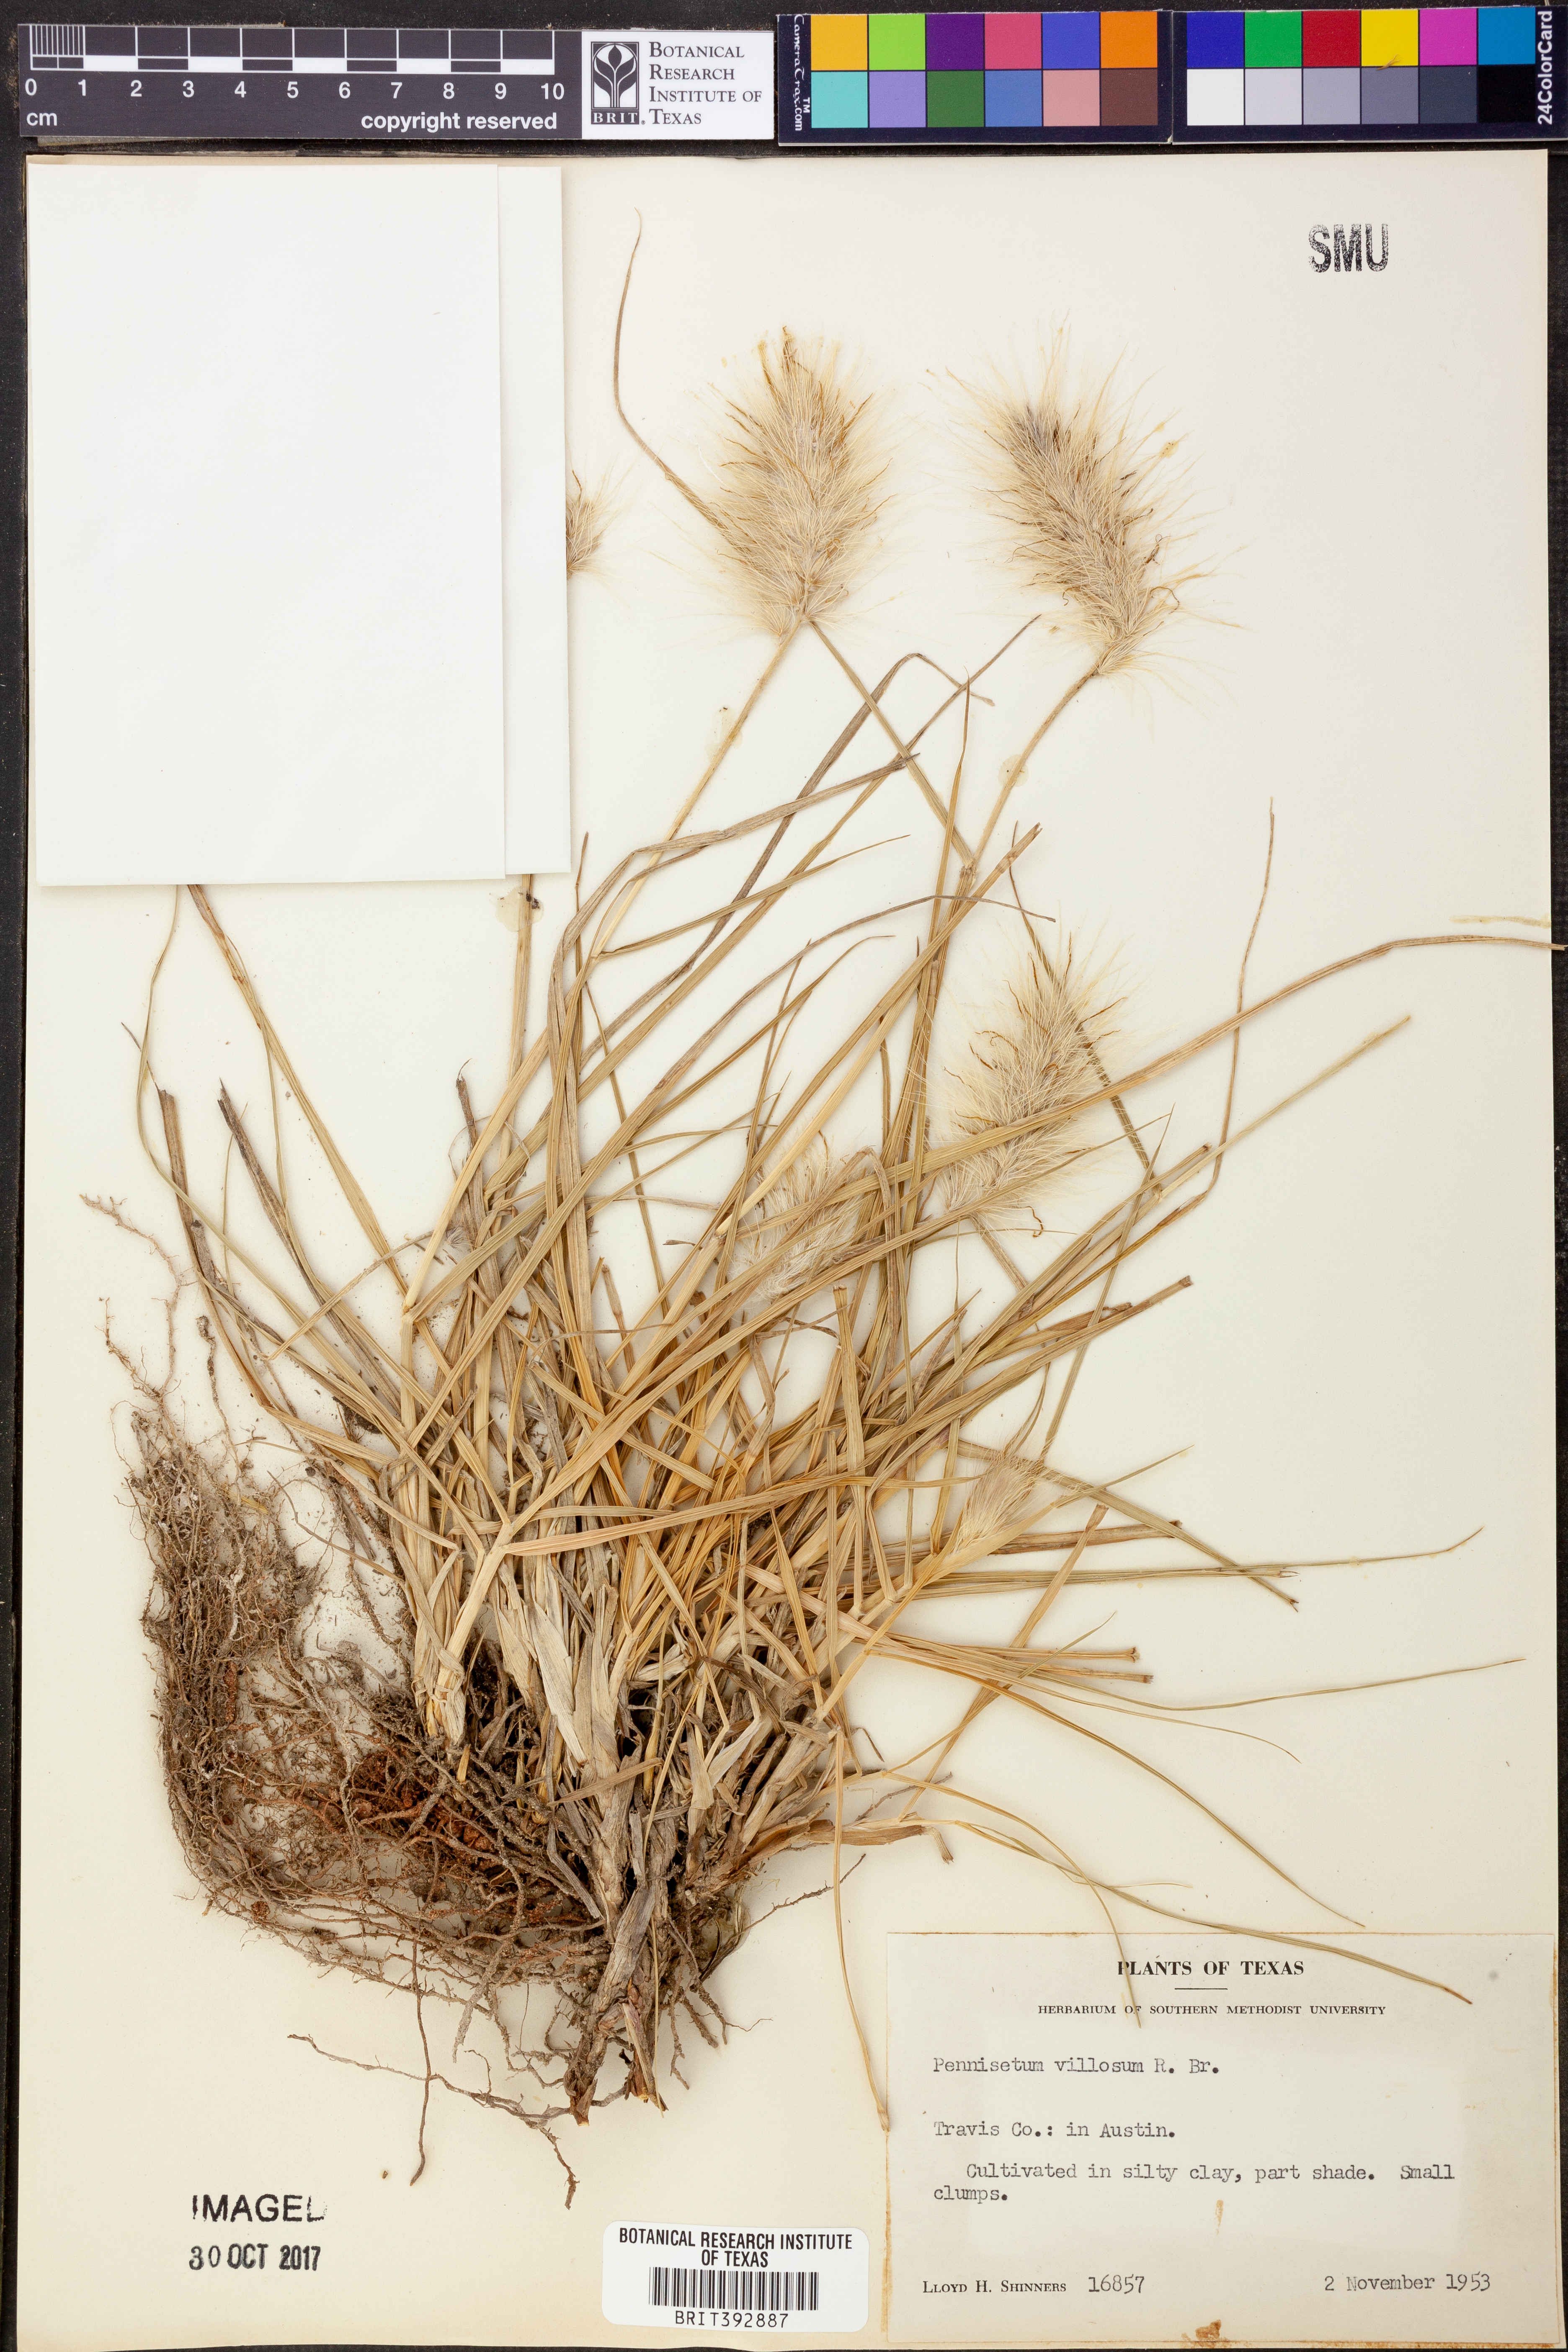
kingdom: Plantae
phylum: Tracheophyta
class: Liliopsida
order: Poales
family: Poaceae
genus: Cenchrus
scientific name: Cenchrus longisetus
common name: Feathertop
